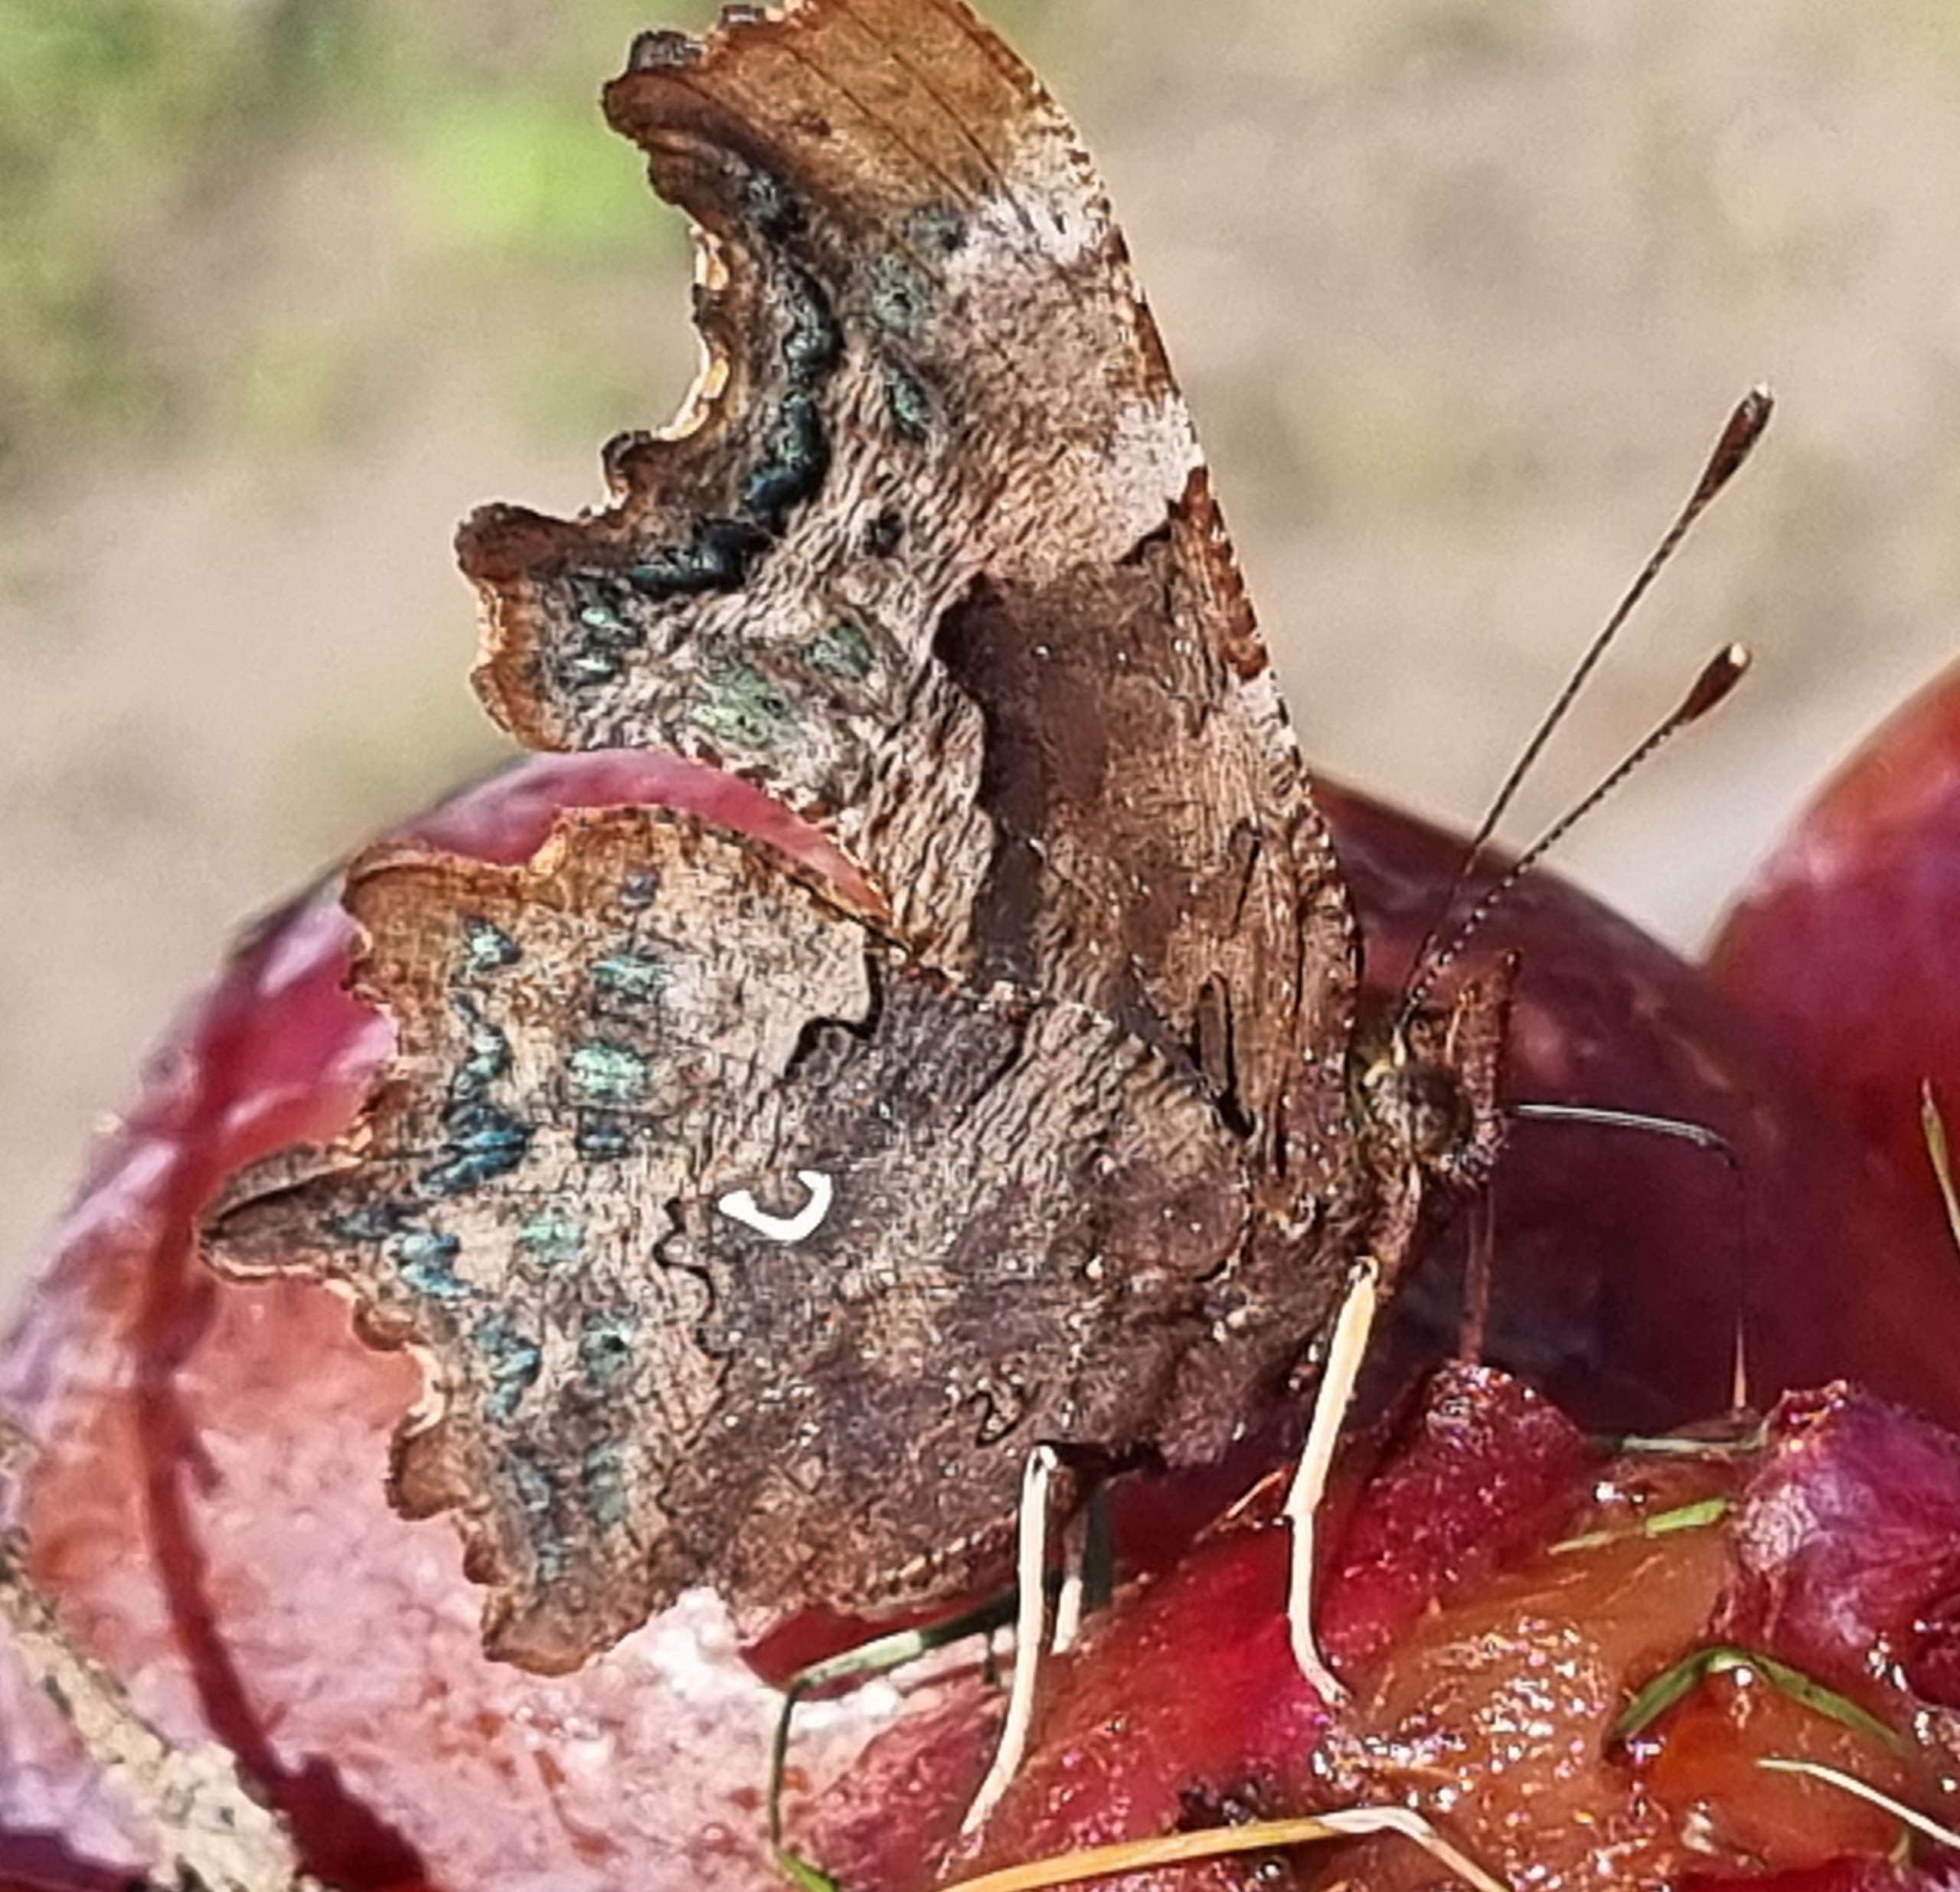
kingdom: Animalia
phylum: Arthropoda
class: Insecta
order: Lepidoptera
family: Nymphalidae
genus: Polygonia
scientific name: Polygonia c-album
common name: Det hvide C
